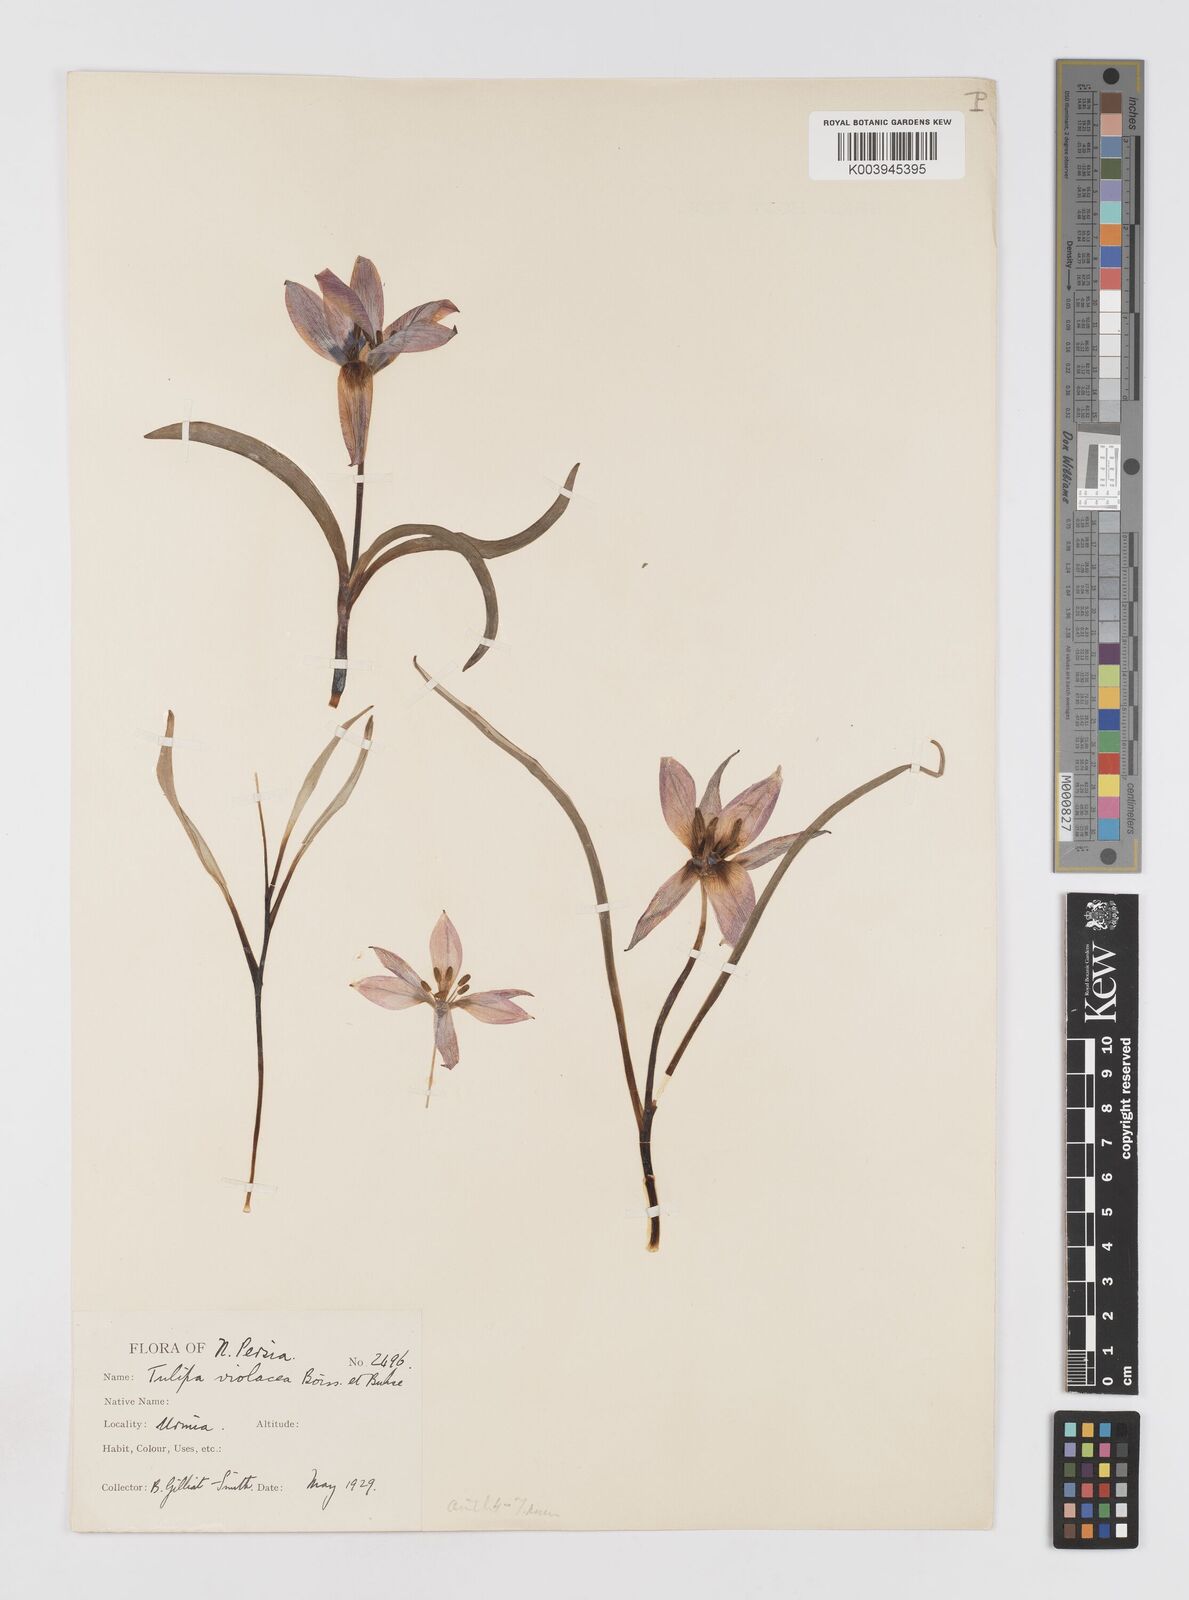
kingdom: Plantae
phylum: Tracheophyta
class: Liliopsida
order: Liliales
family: Liliaceae
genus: Tulipa
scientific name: Tulipa humilis
